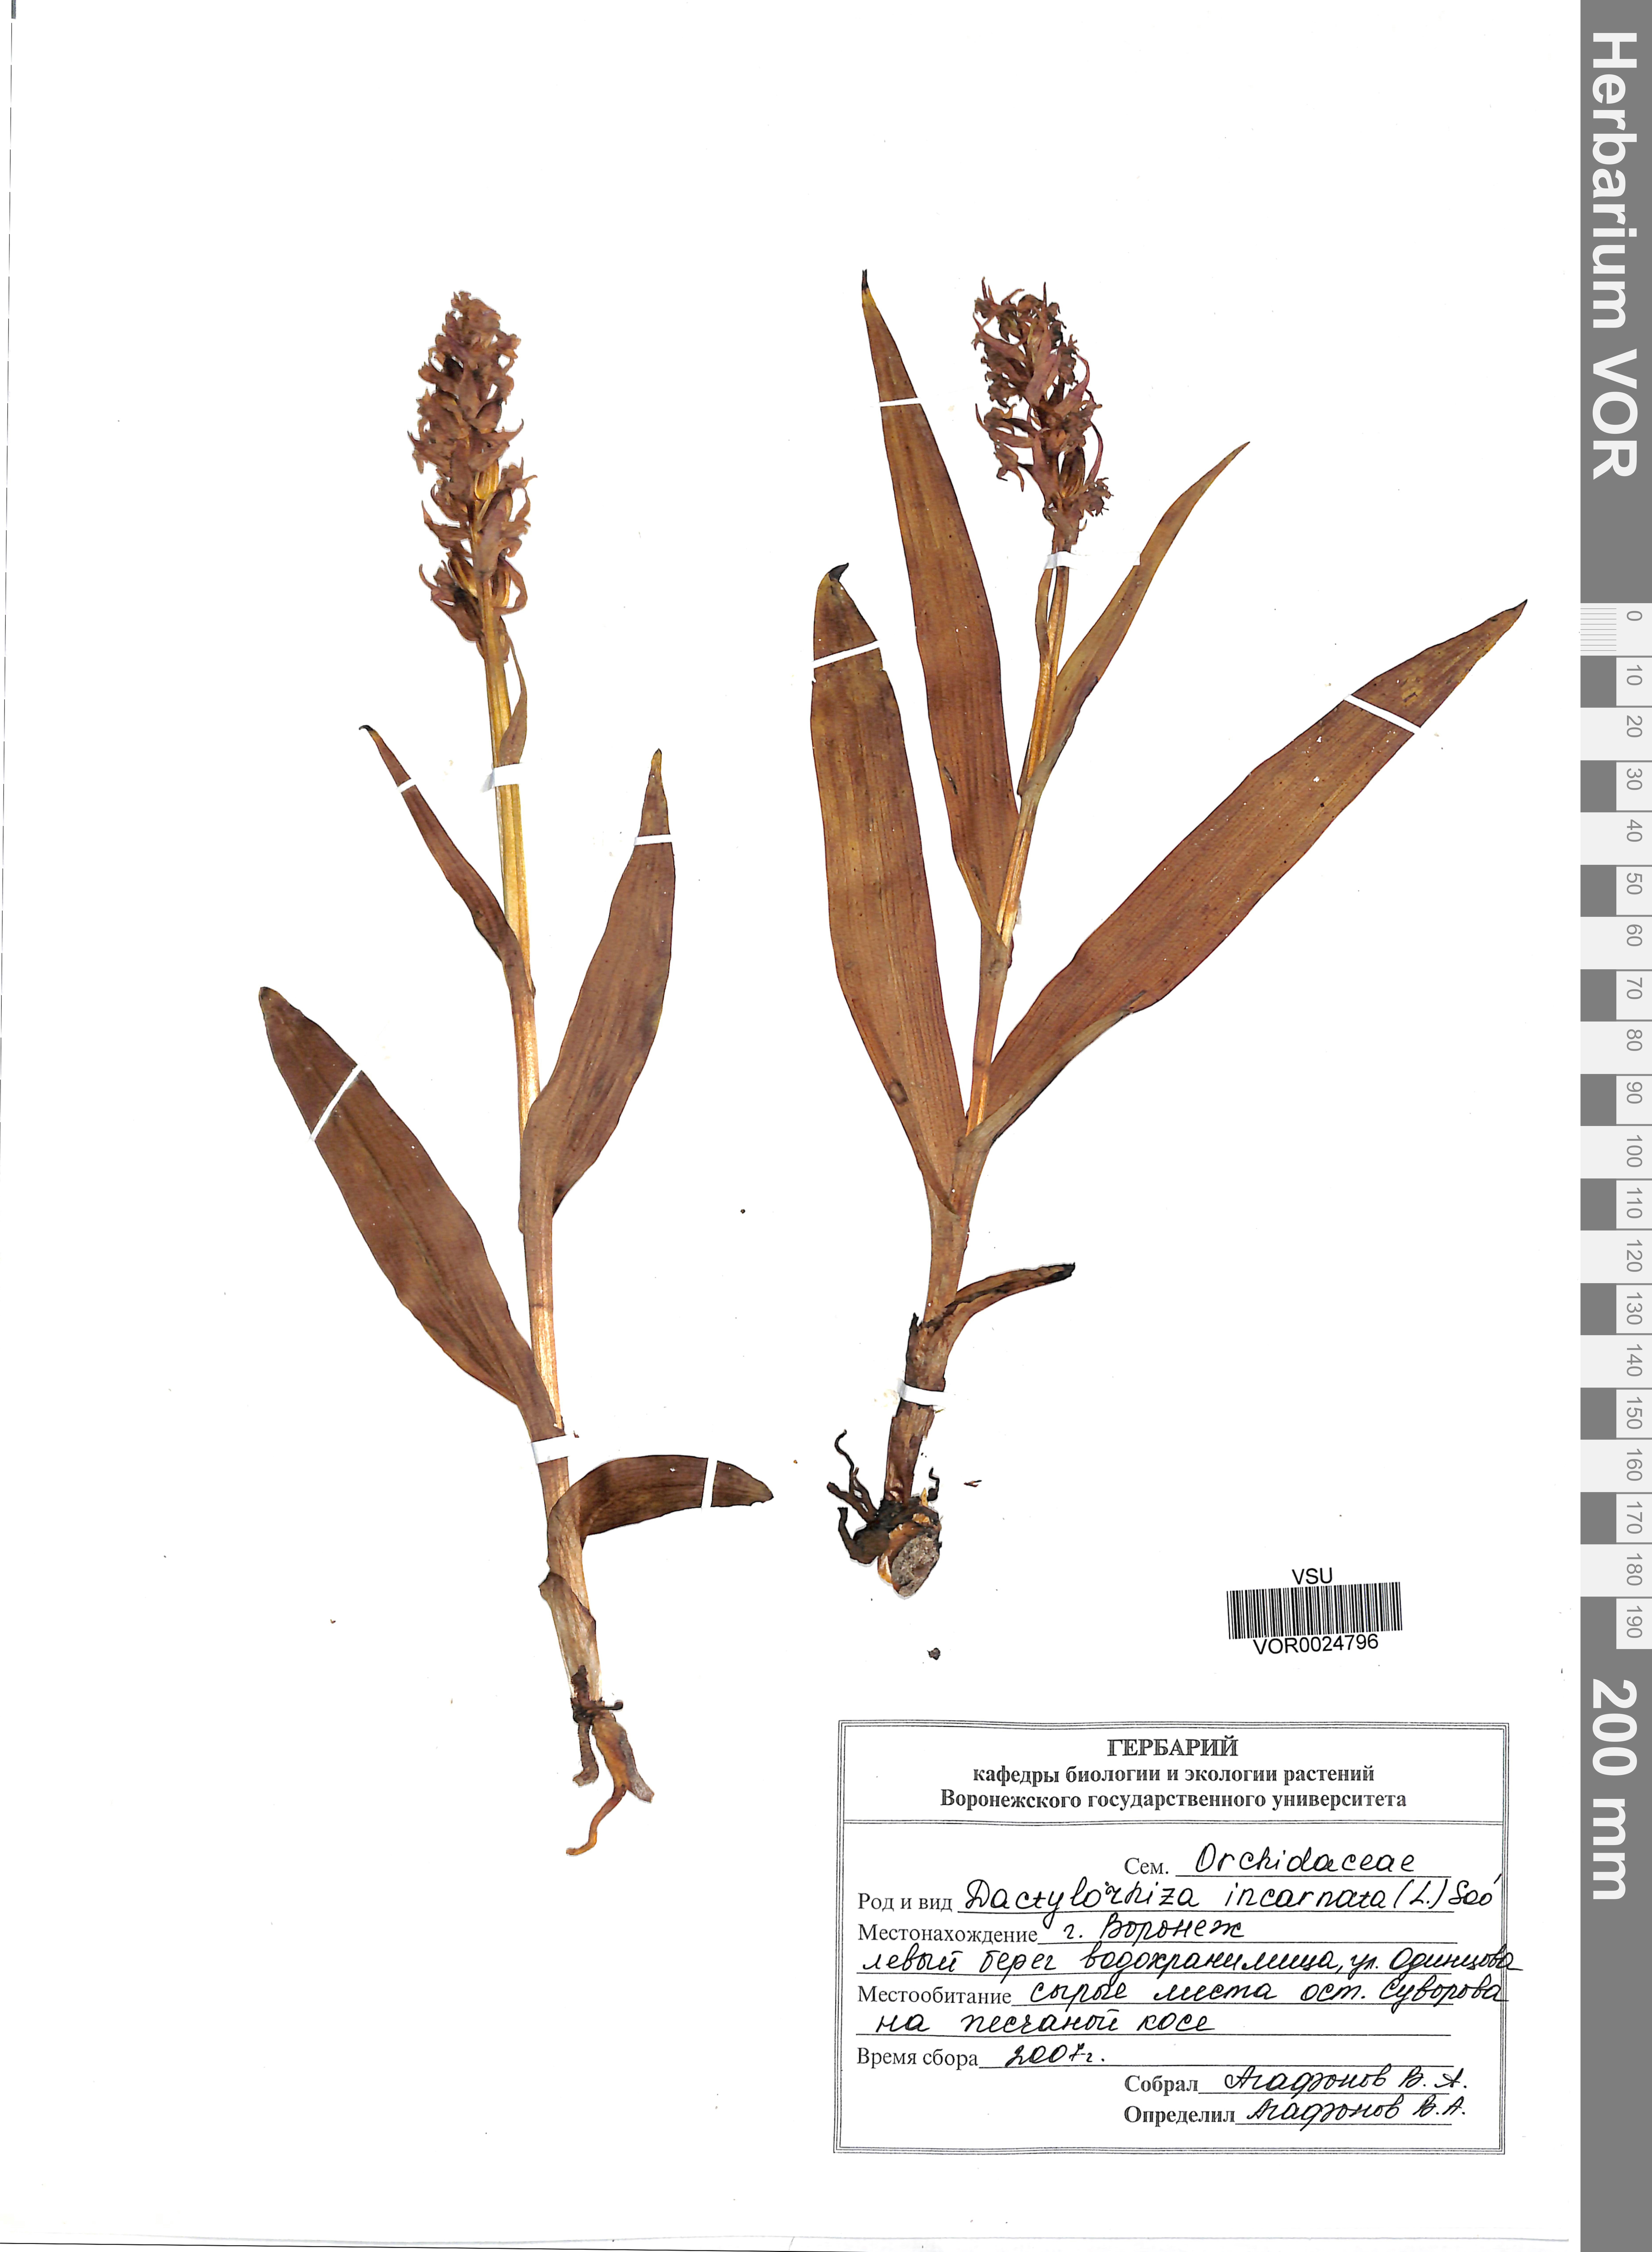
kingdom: Plantae
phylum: Tracheophyta
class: Liliopsida
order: Asparagales
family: Orchidaceae
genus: Dactylorhiza
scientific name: Dactylorhiza incarnata
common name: Early marsh-orchid
